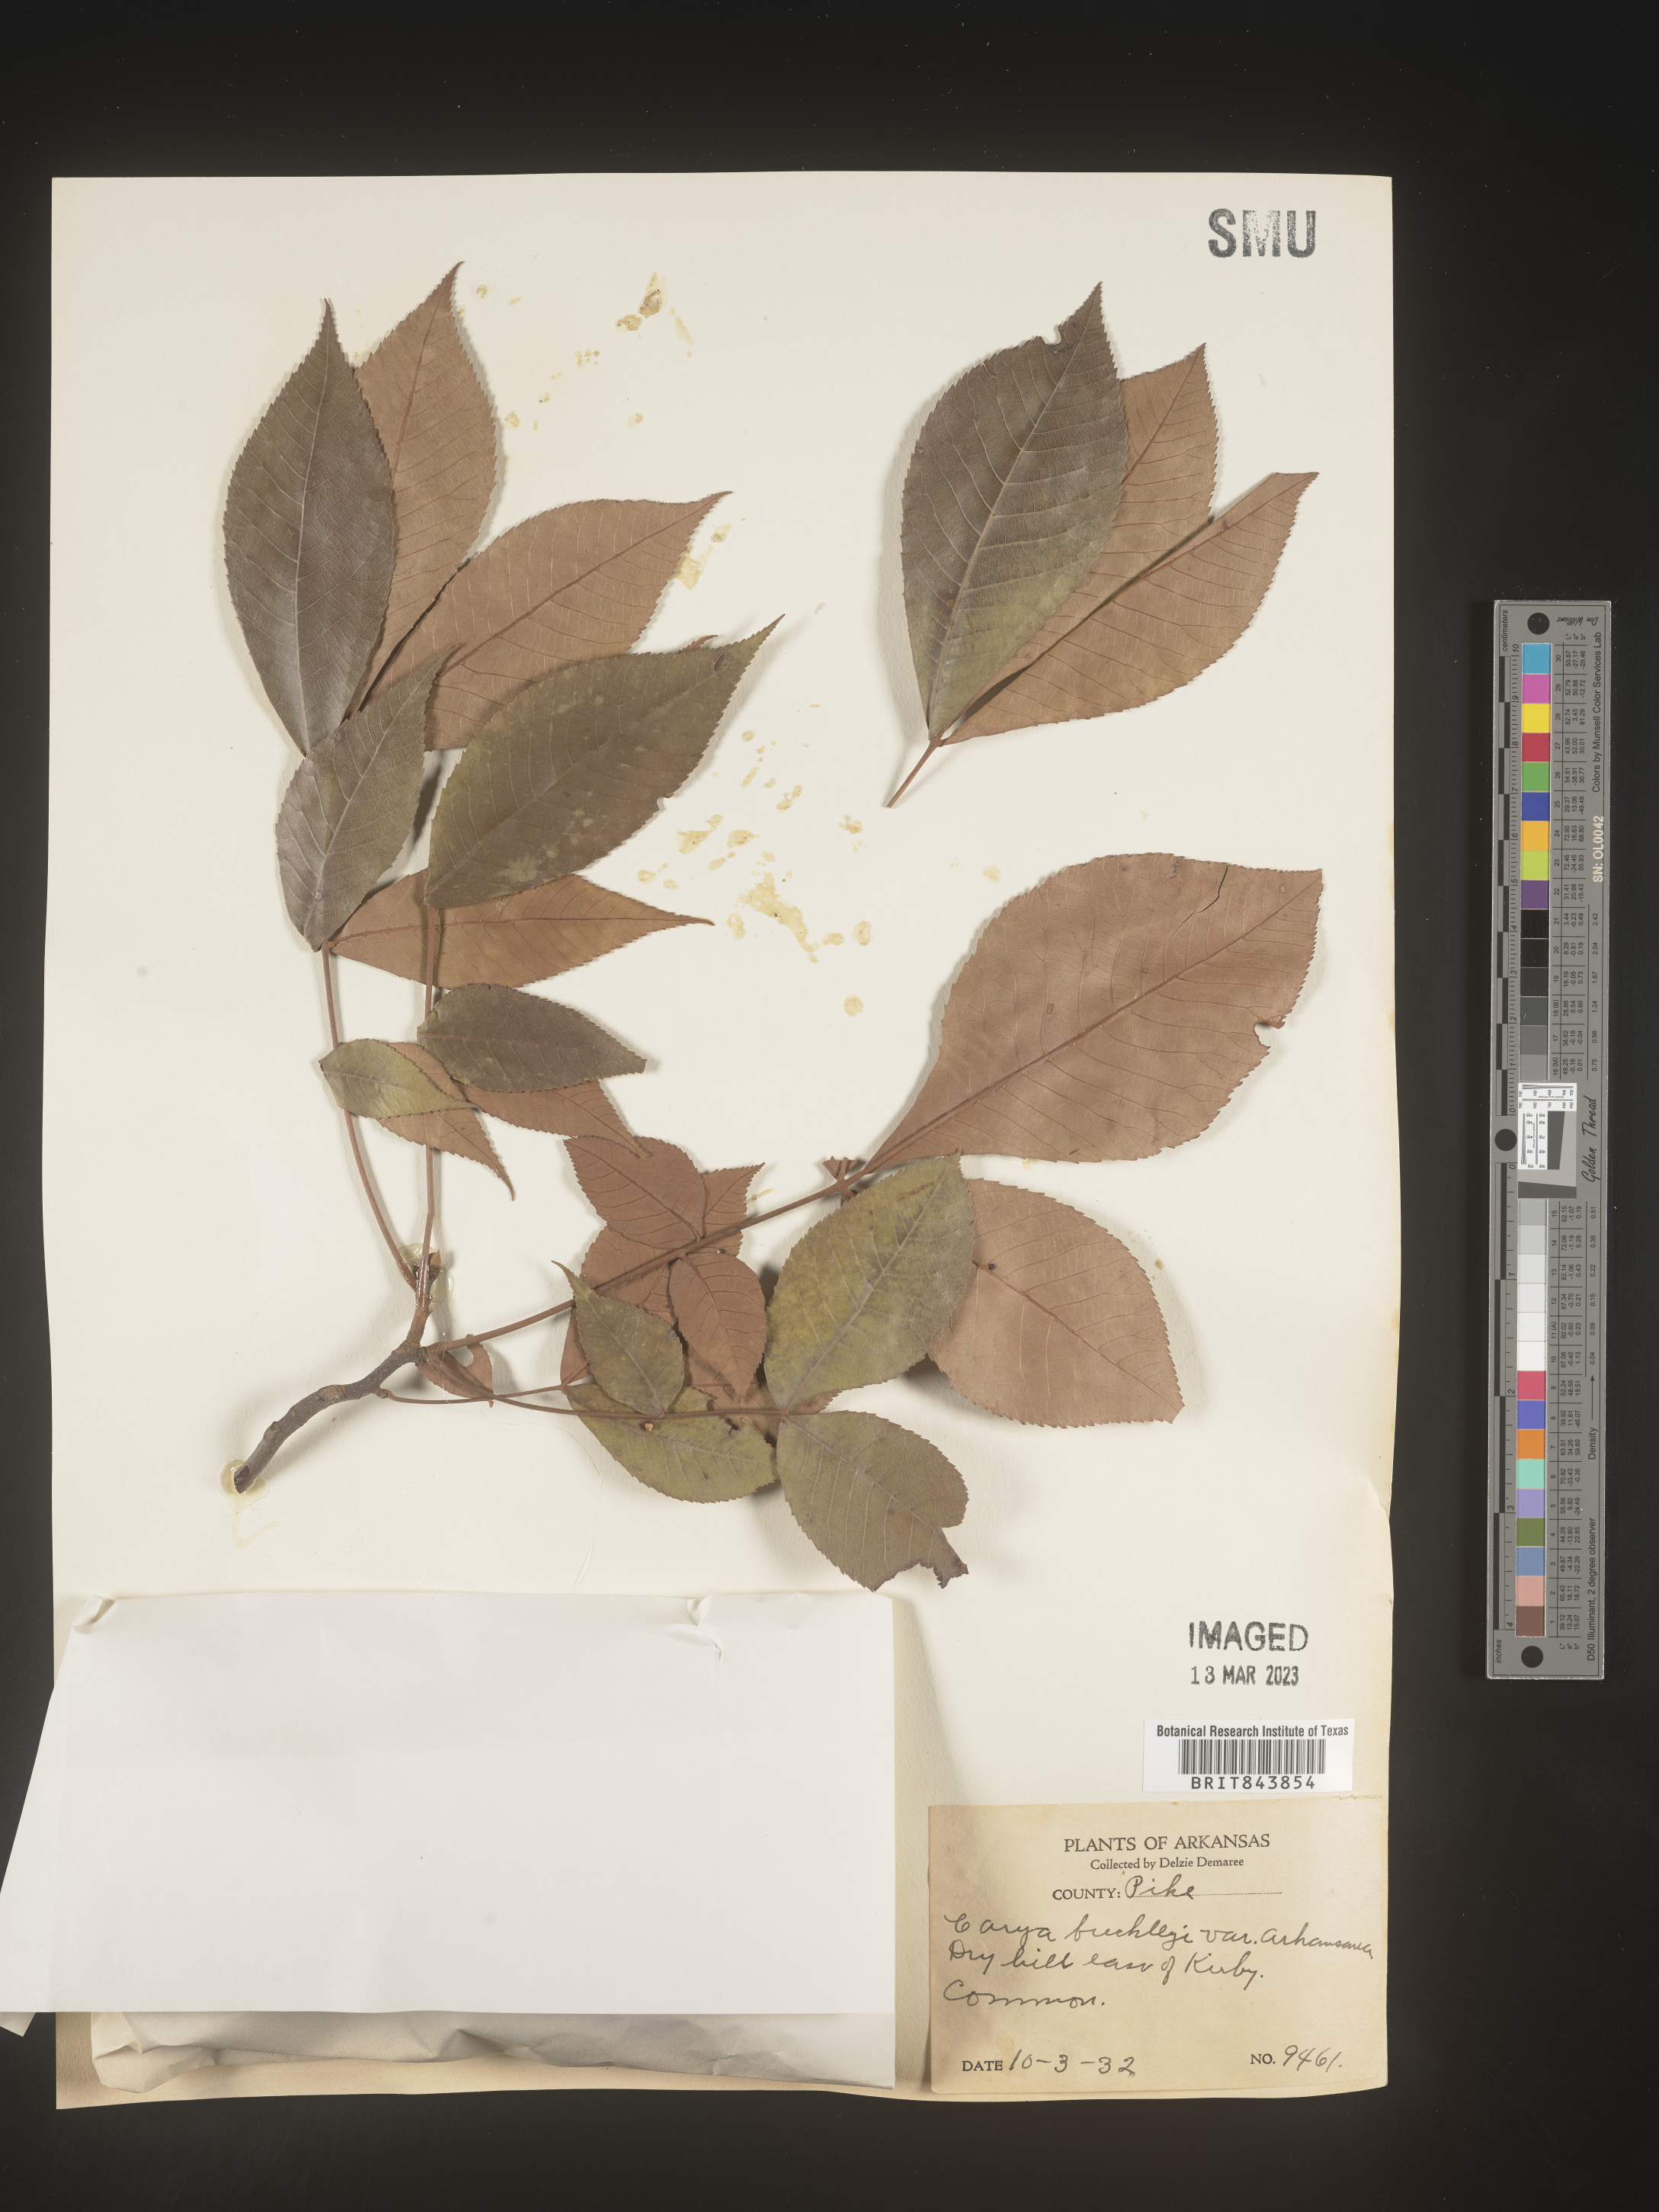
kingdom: Plantae
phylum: Tracheophyta
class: Magnoliopsida
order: Fagales
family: Juglandaceae
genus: Carya
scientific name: Carya texana
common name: Black hickory
